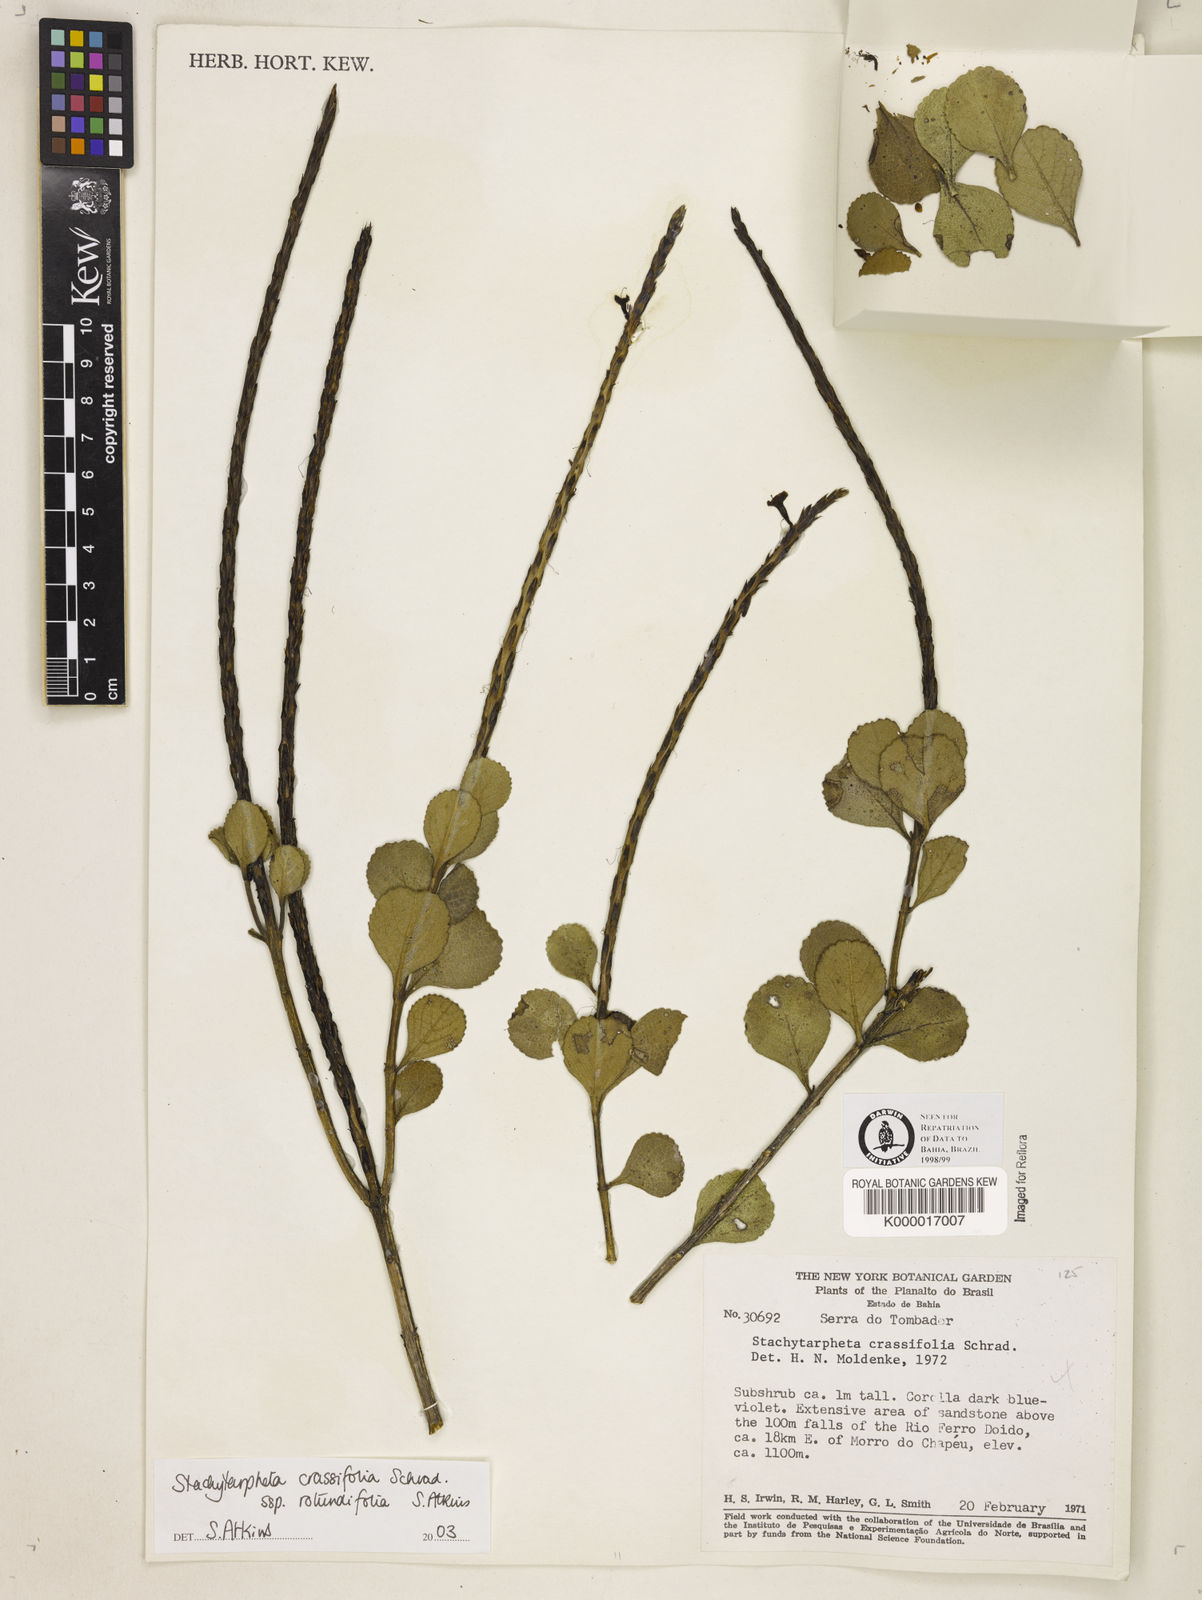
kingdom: Plantae
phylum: Tracheophyta
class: Magnoliopsida
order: Lamiales
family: Verbenaceae
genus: Stachytarpheta
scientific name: Stachytarpheta crassifolia
